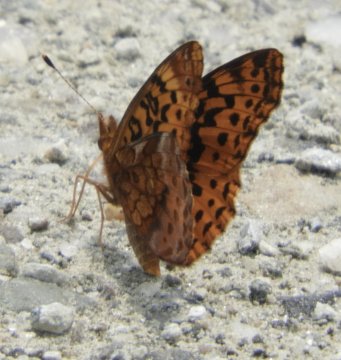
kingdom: Animalia
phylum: Arthropoda
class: Insecta
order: Lepidoptera
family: Nymphalidae
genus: Clossiana
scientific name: Clossiana toddi
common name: Meadow Fritillary
